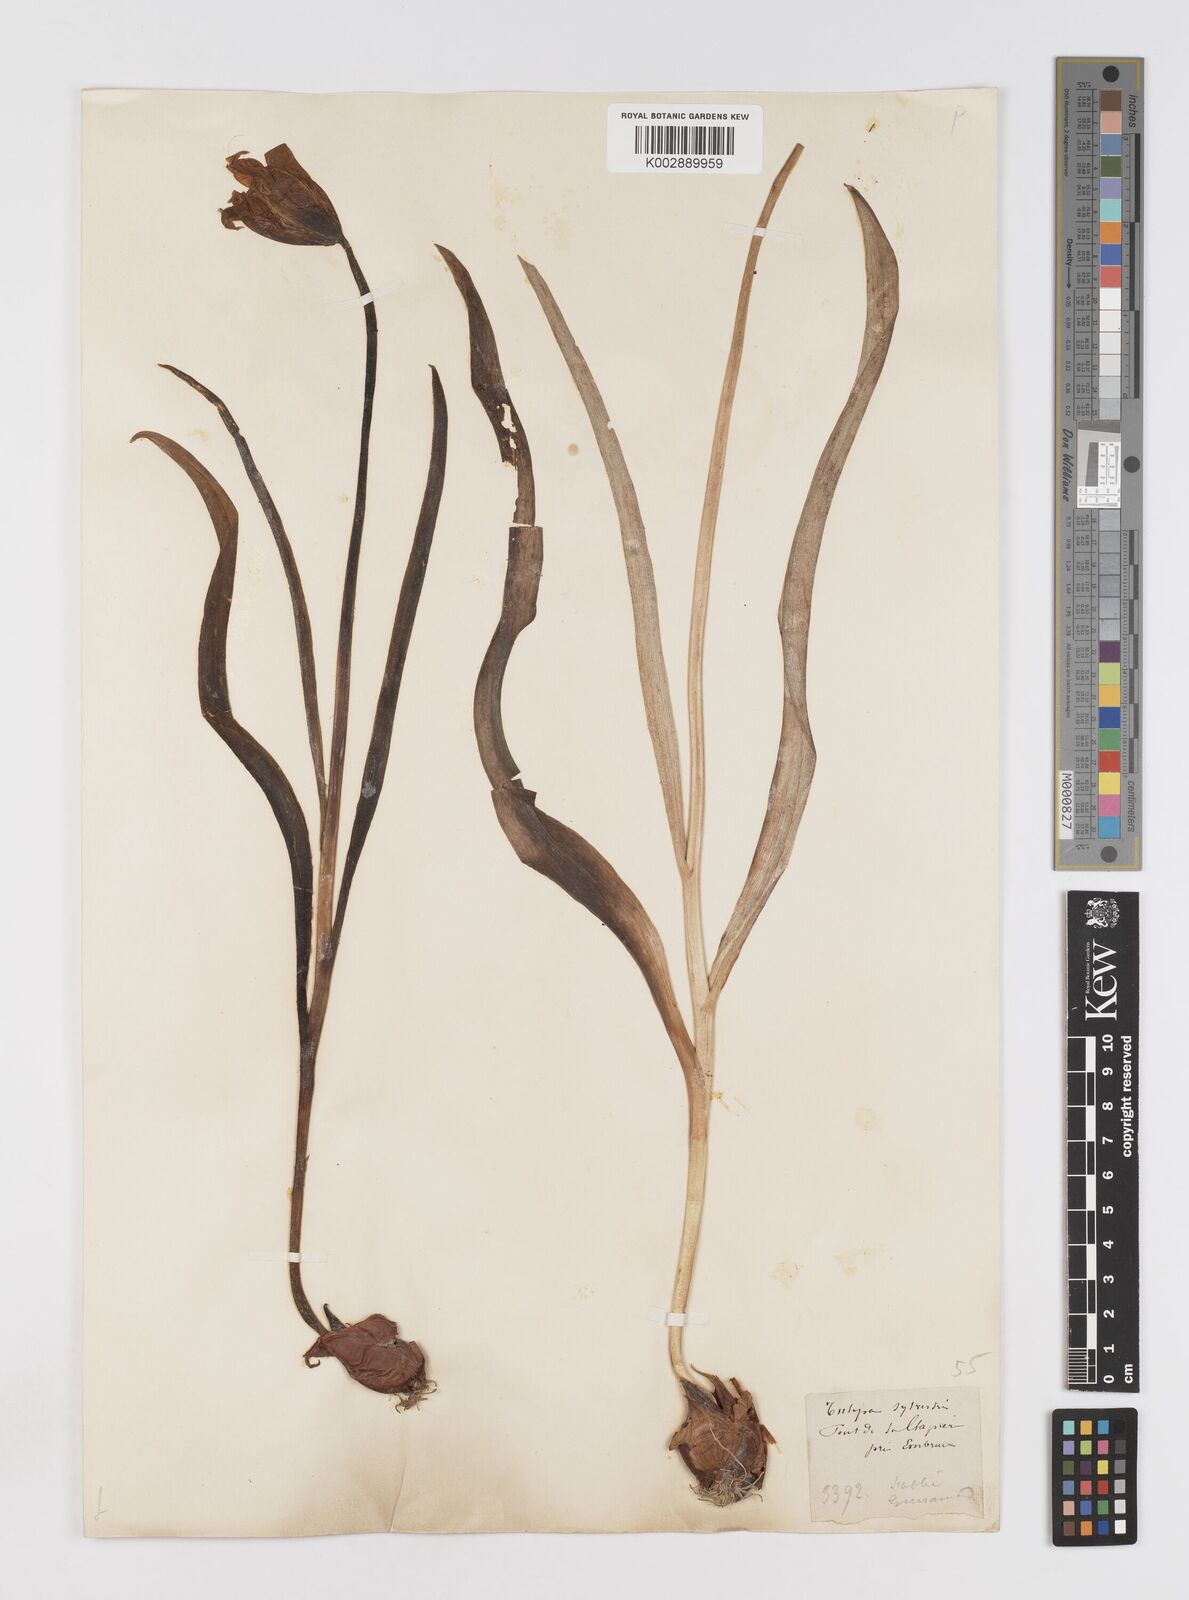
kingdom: Plantae
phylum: Tracheophyta
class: Liliopsida
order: Liliales
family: Liliaceae
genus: Tulipa
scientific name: Tulipa sylvestris
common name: Wild tulip
